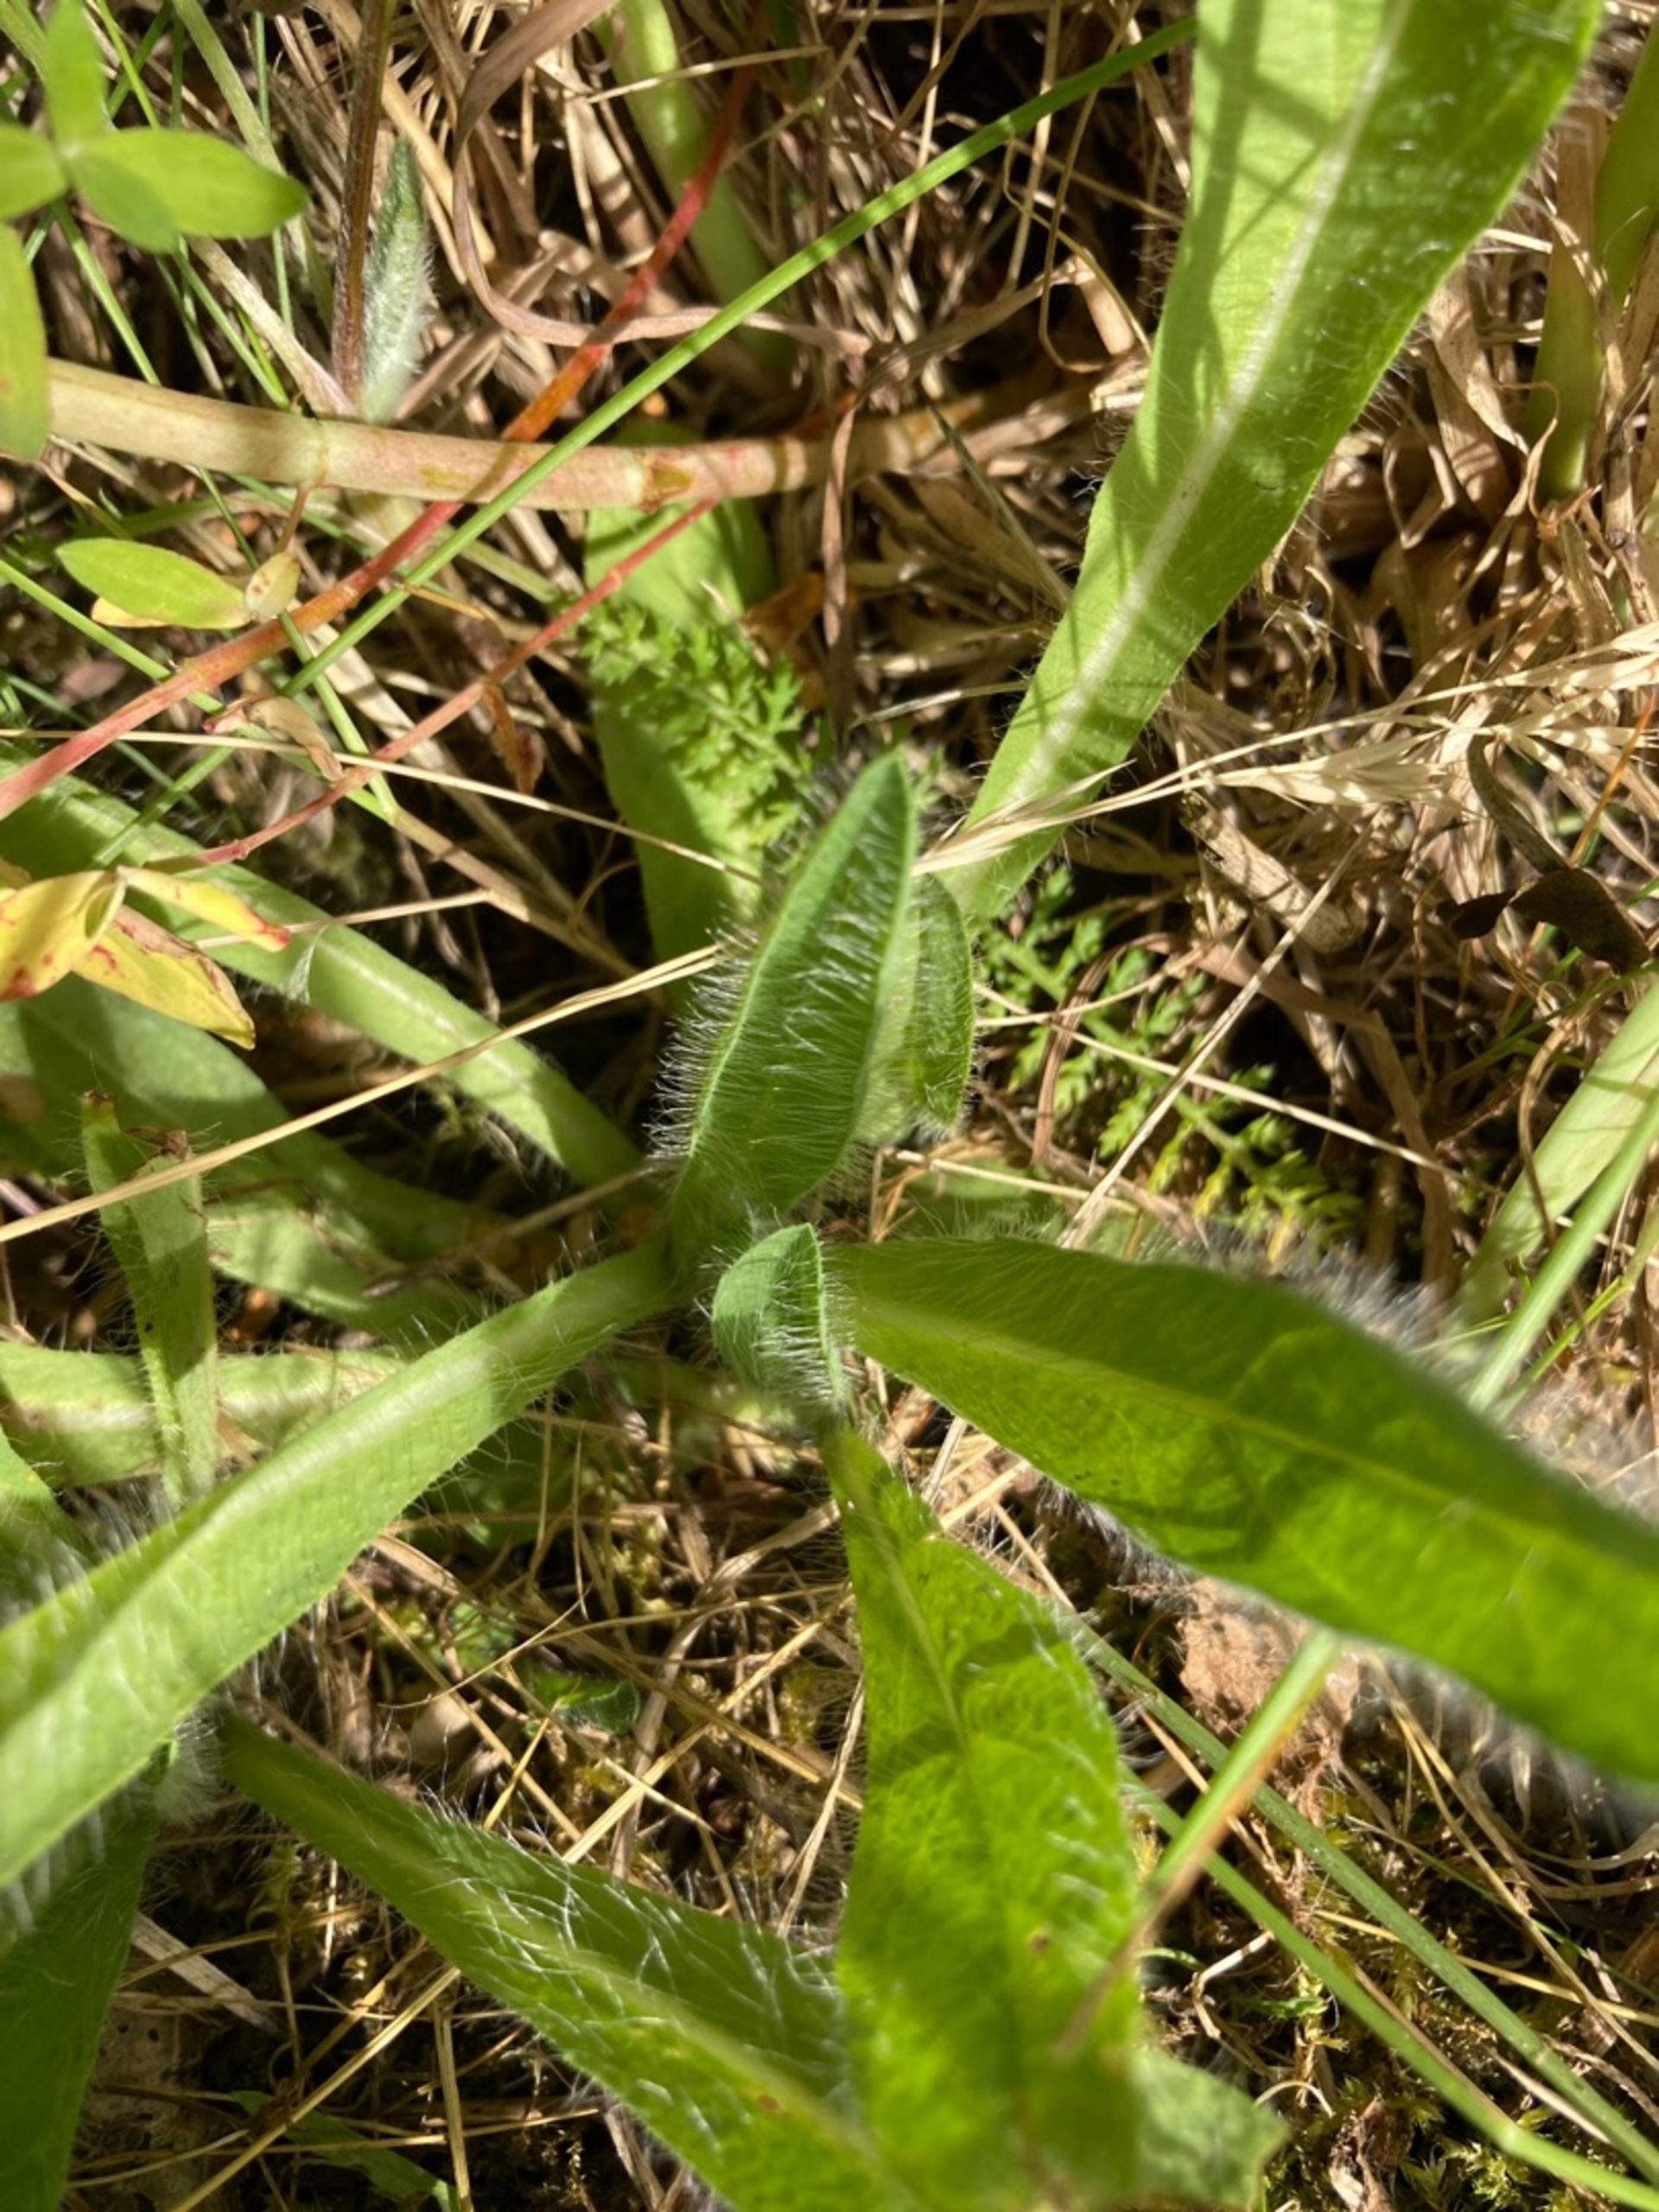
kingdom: Plantae
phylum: Tracheophyta
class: Magnoliopsida
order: Asterales
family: Asteraceae
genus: Pilosella
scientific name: Pilosella aurantiaca
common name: Pomerans-høgeurt
